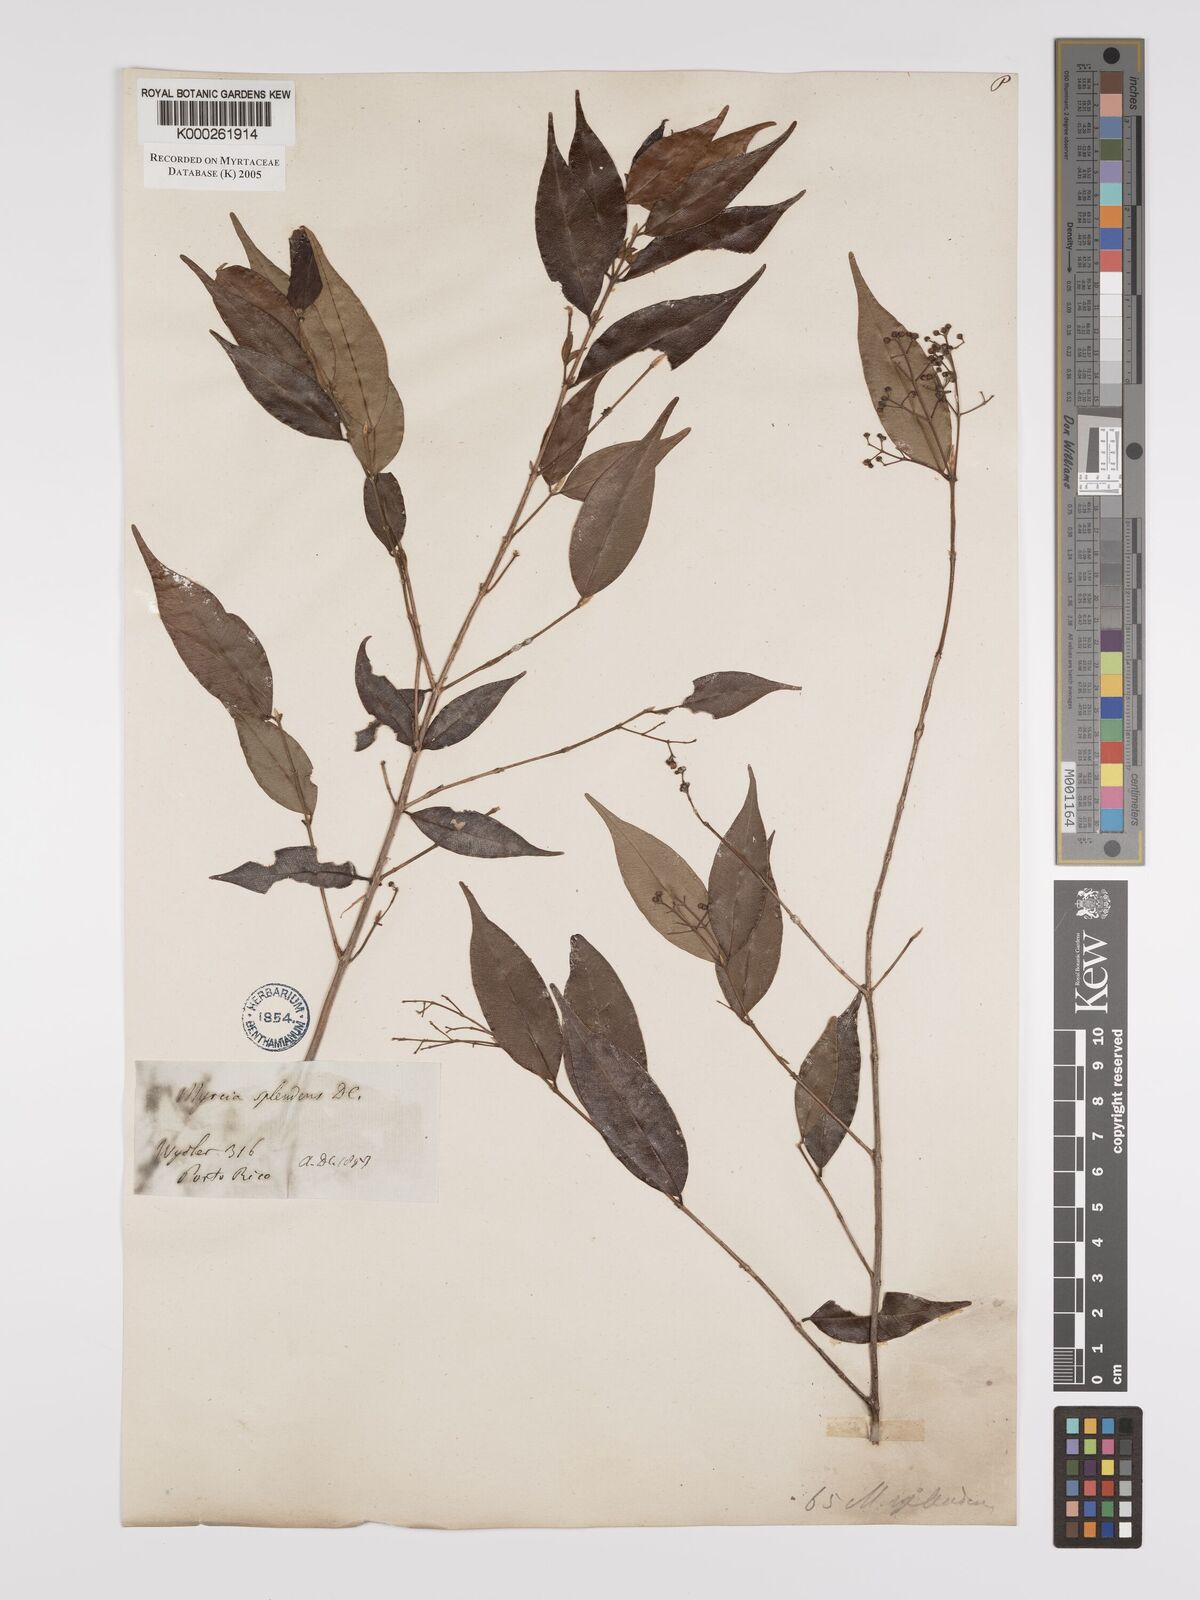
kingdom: Plantae
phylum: Tracheophyta
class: Magnoliopsida
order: Myrtales
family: Myrtaceae
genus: Myrcia
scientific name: Myrcia splendens
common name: Surinam cherry
